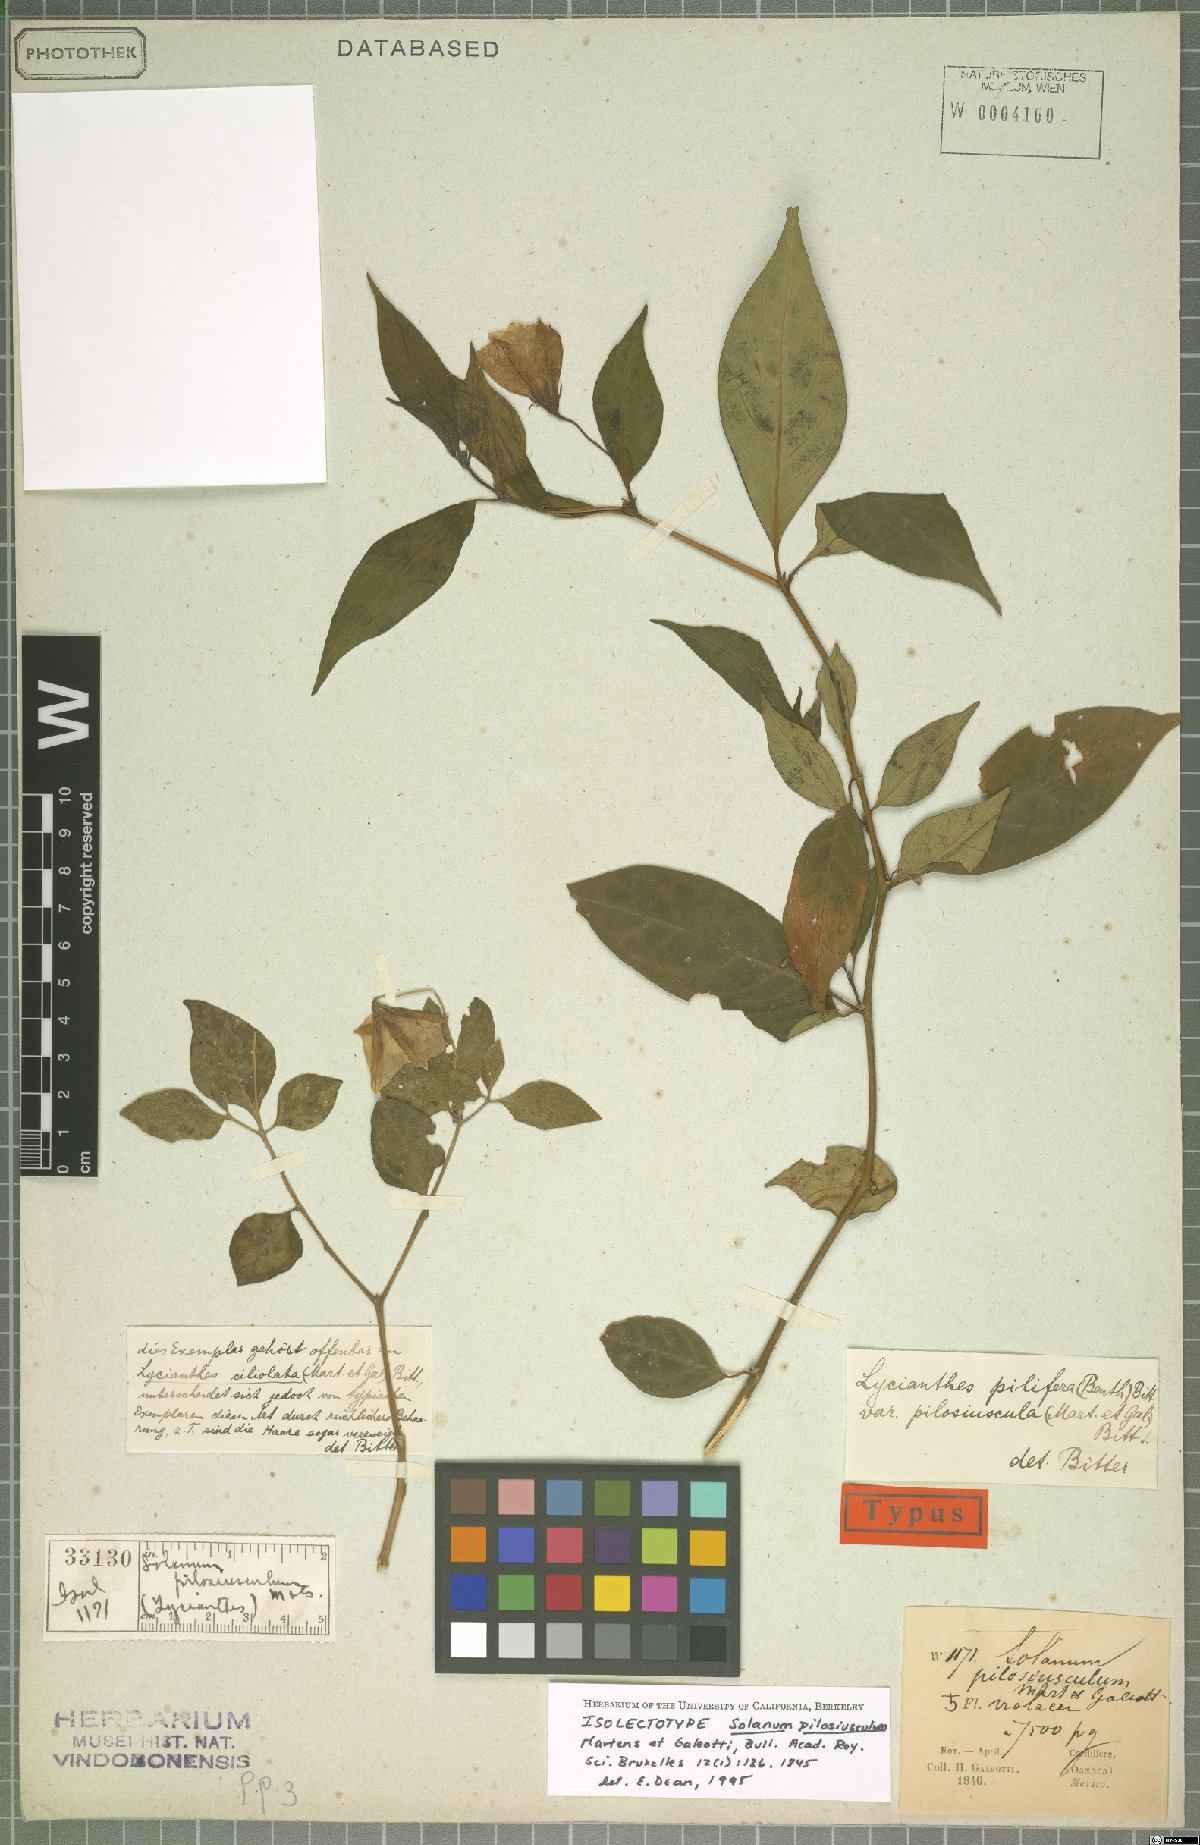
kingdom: Plantae
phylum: Tracheophyta
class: Magnoliopsida
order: Solanales
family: Solanaceae
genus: Lycianthes
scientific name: Lycianthes pilifera
